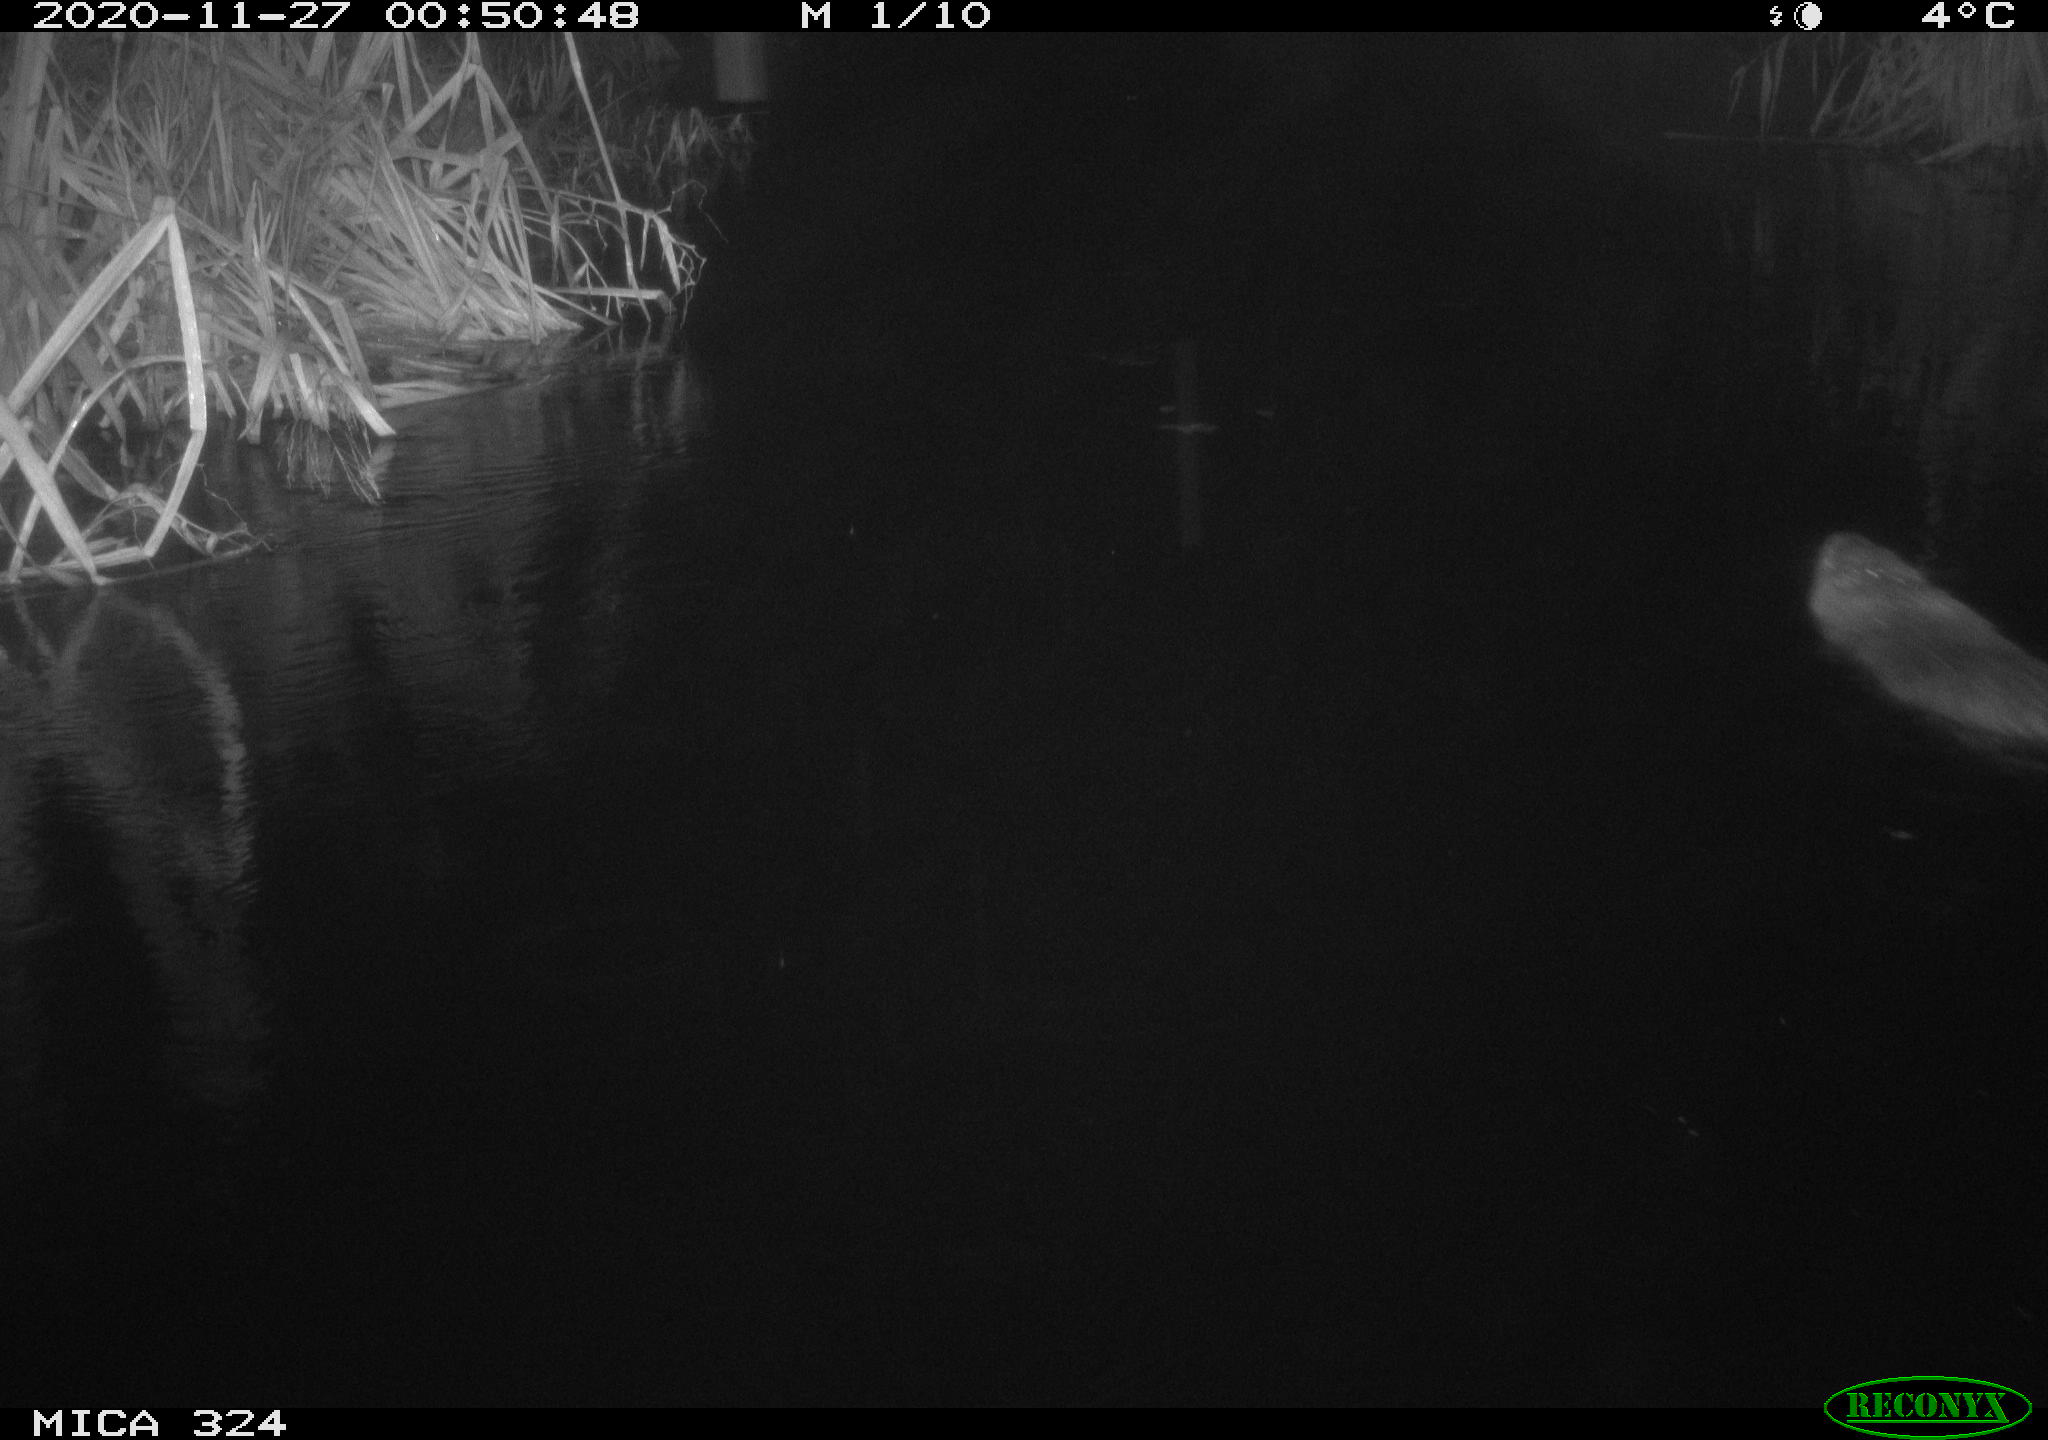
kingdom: Animalia
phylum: Chordata
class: Mammalia
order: Rodentia
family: Myocastoridae
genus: Myocastor
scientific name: Myocastor coypus
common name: Coypu
